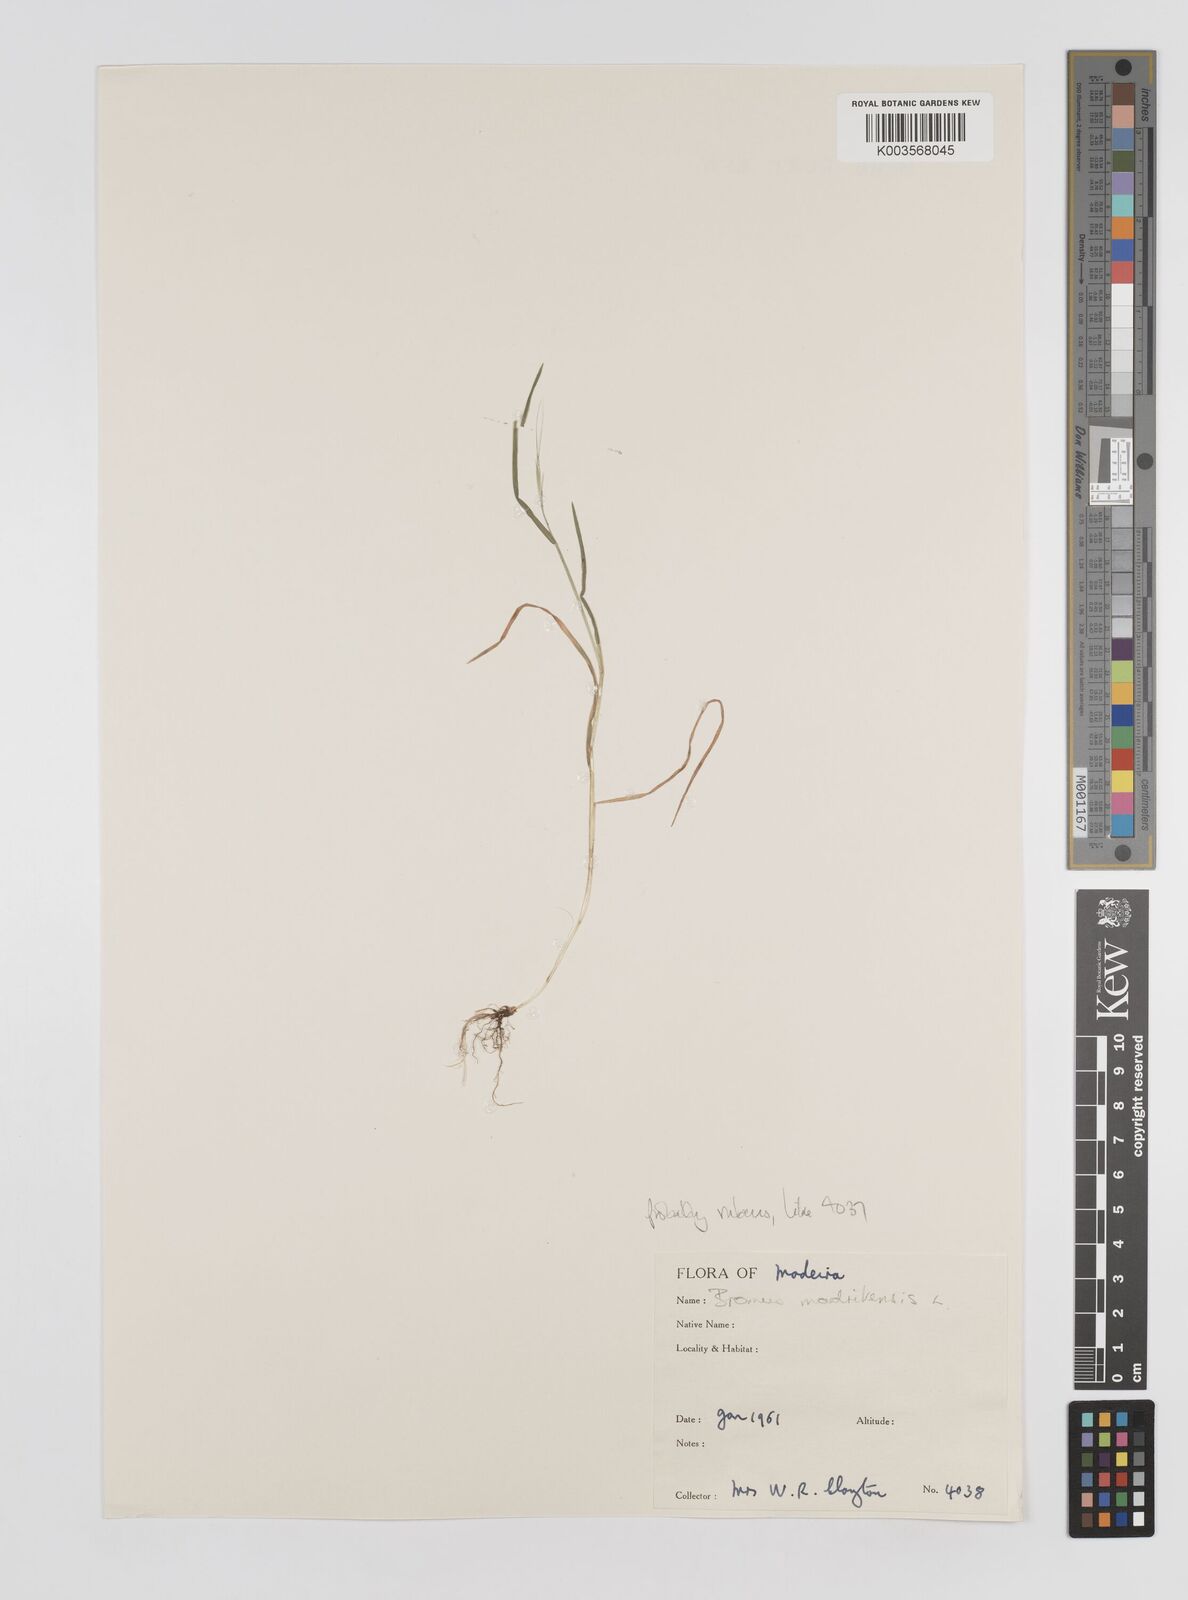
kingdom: Plantae
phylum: Tracheophyta
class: Liliopsida
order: Poales
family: Poaceae
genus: Bromus
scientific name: Bromus
